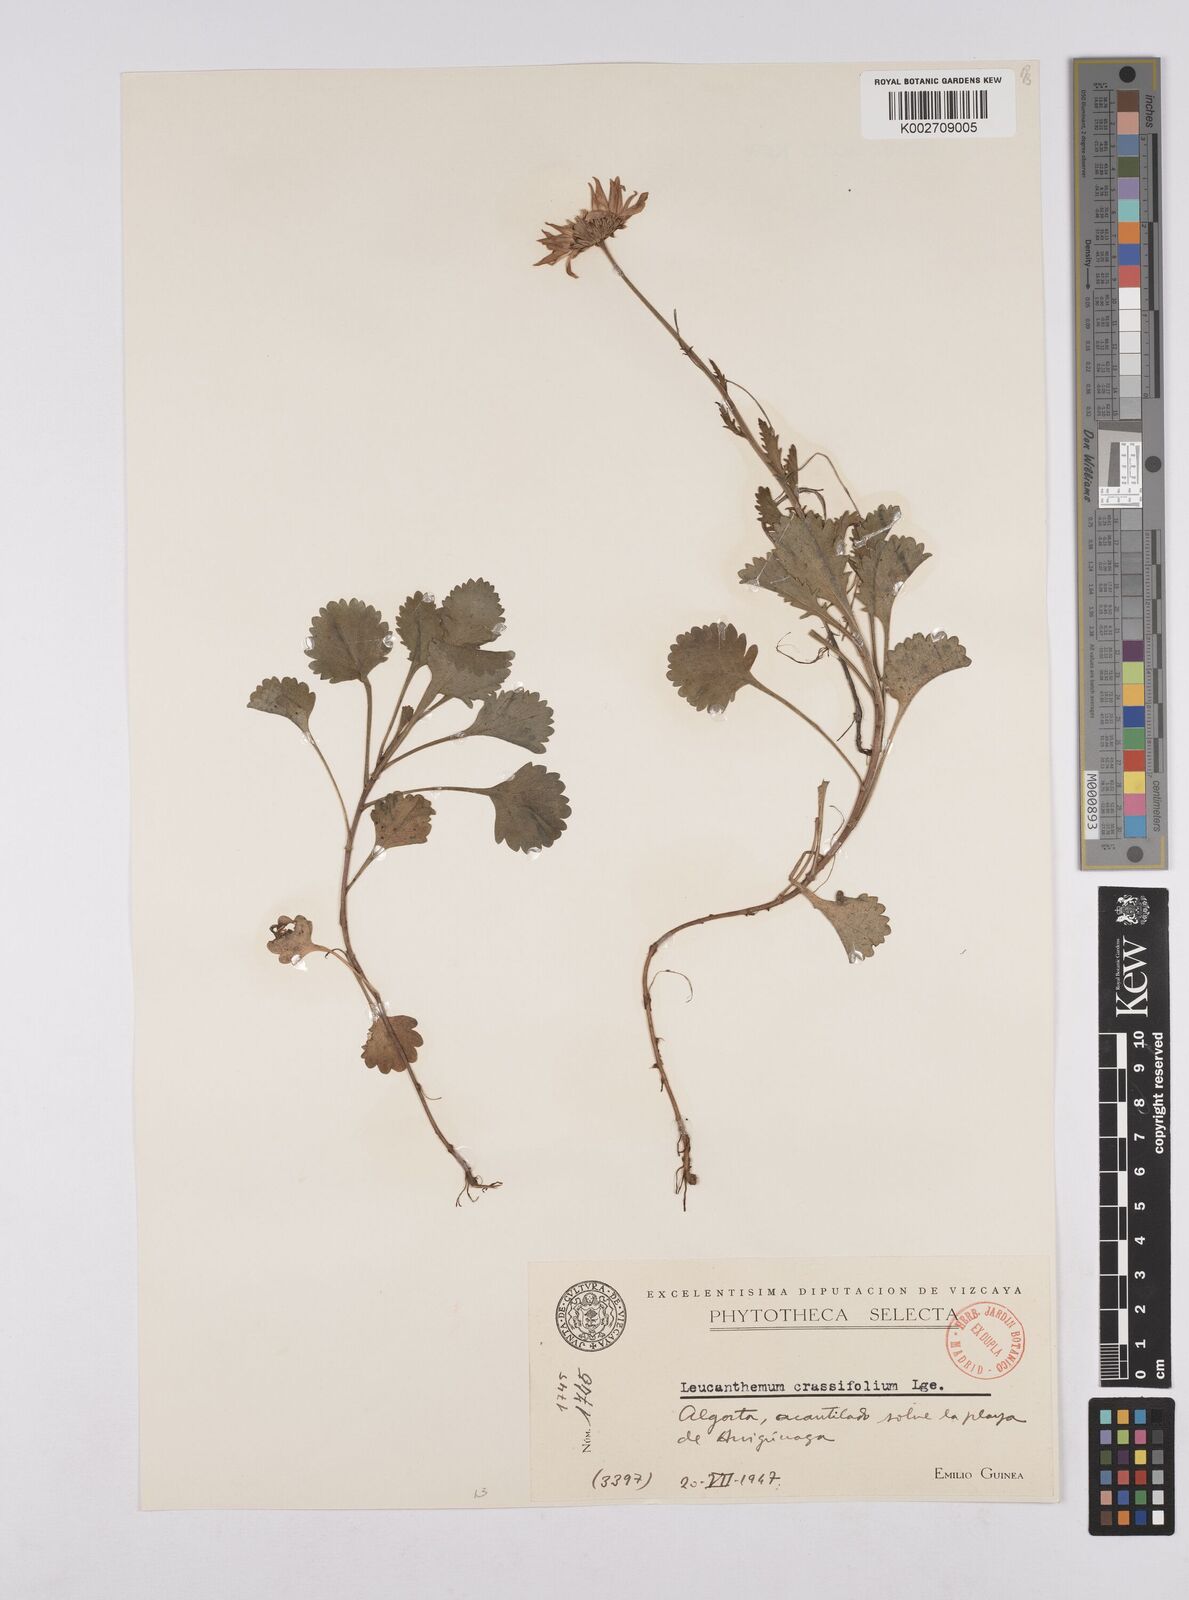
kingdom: Plantae
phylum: Tracheophyta
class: Magnoliopsida
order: Asterales
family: Asteraceae
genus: Leucanthemum
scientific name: Leucanthemum ircutianum
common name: Daisy
